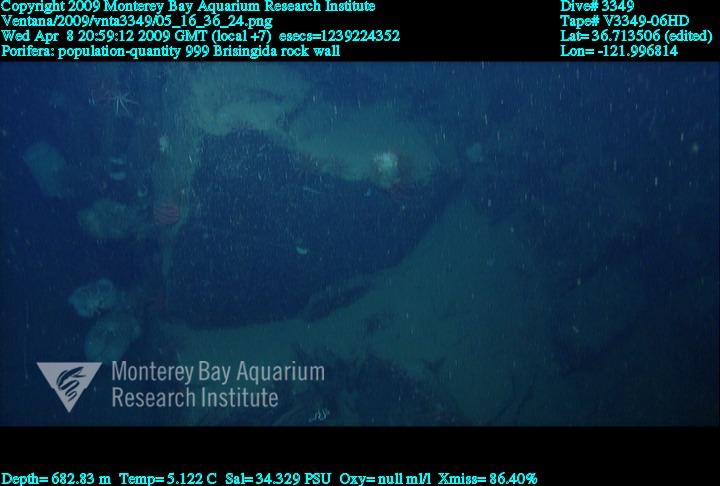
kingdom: Animalia
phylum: Porifera
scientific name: Porifera
